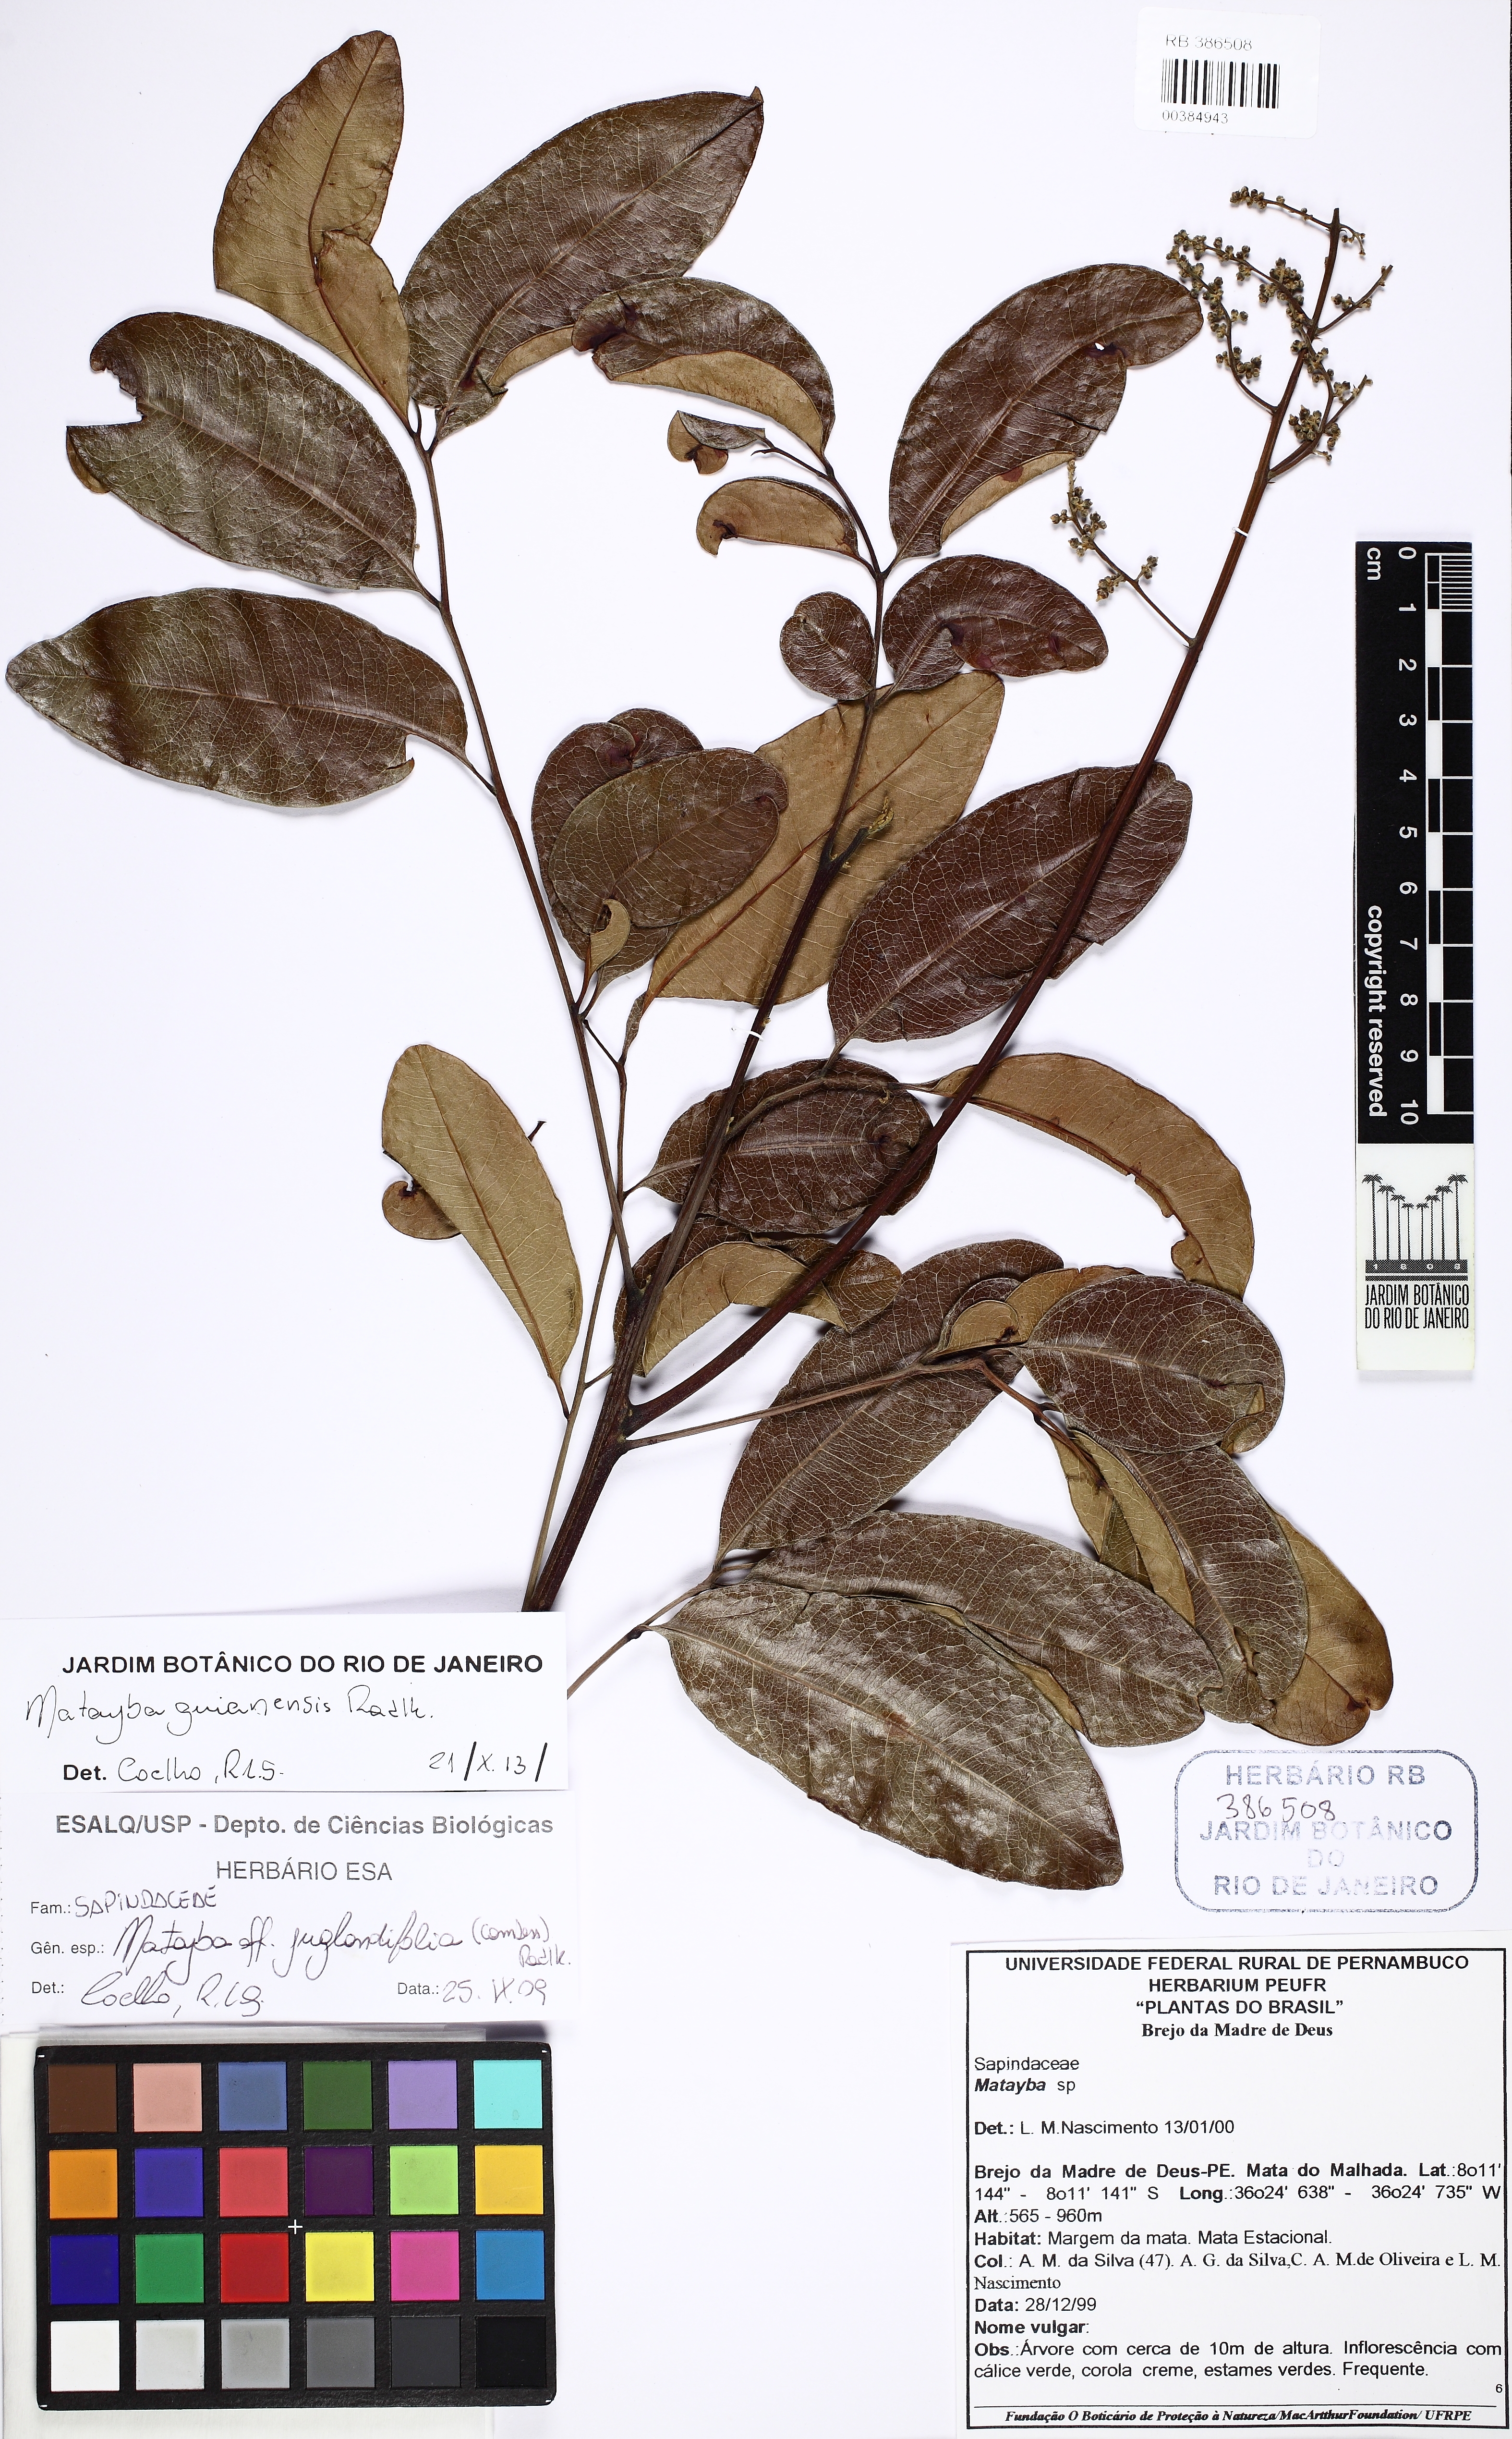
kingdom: Plantae
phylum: Tracheophyta
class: Magnoliopsida
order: Sapindales
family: Sapindaceae
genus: Matayba
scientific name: Matayba guianensis
